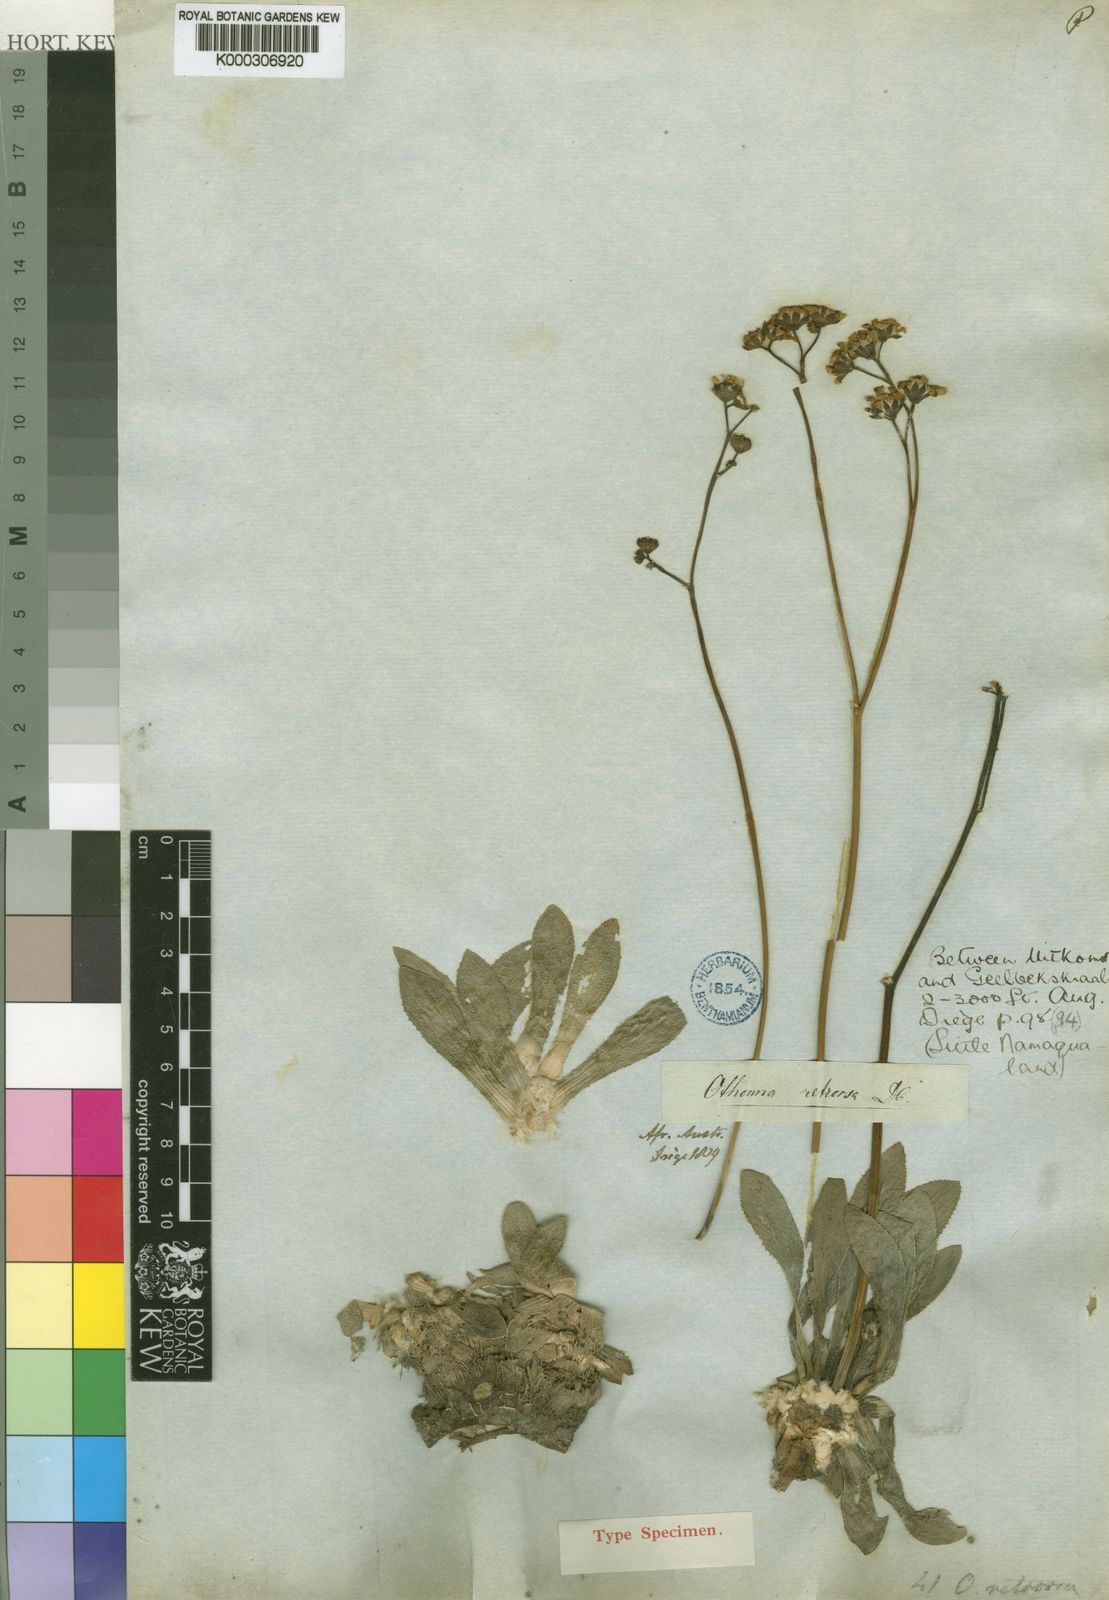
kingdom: Plantae
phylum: Tracheophyta
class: Magnoliopsida
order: Asterales
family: Asteraceae
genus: Othonna
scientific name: Othonna retrorsa
